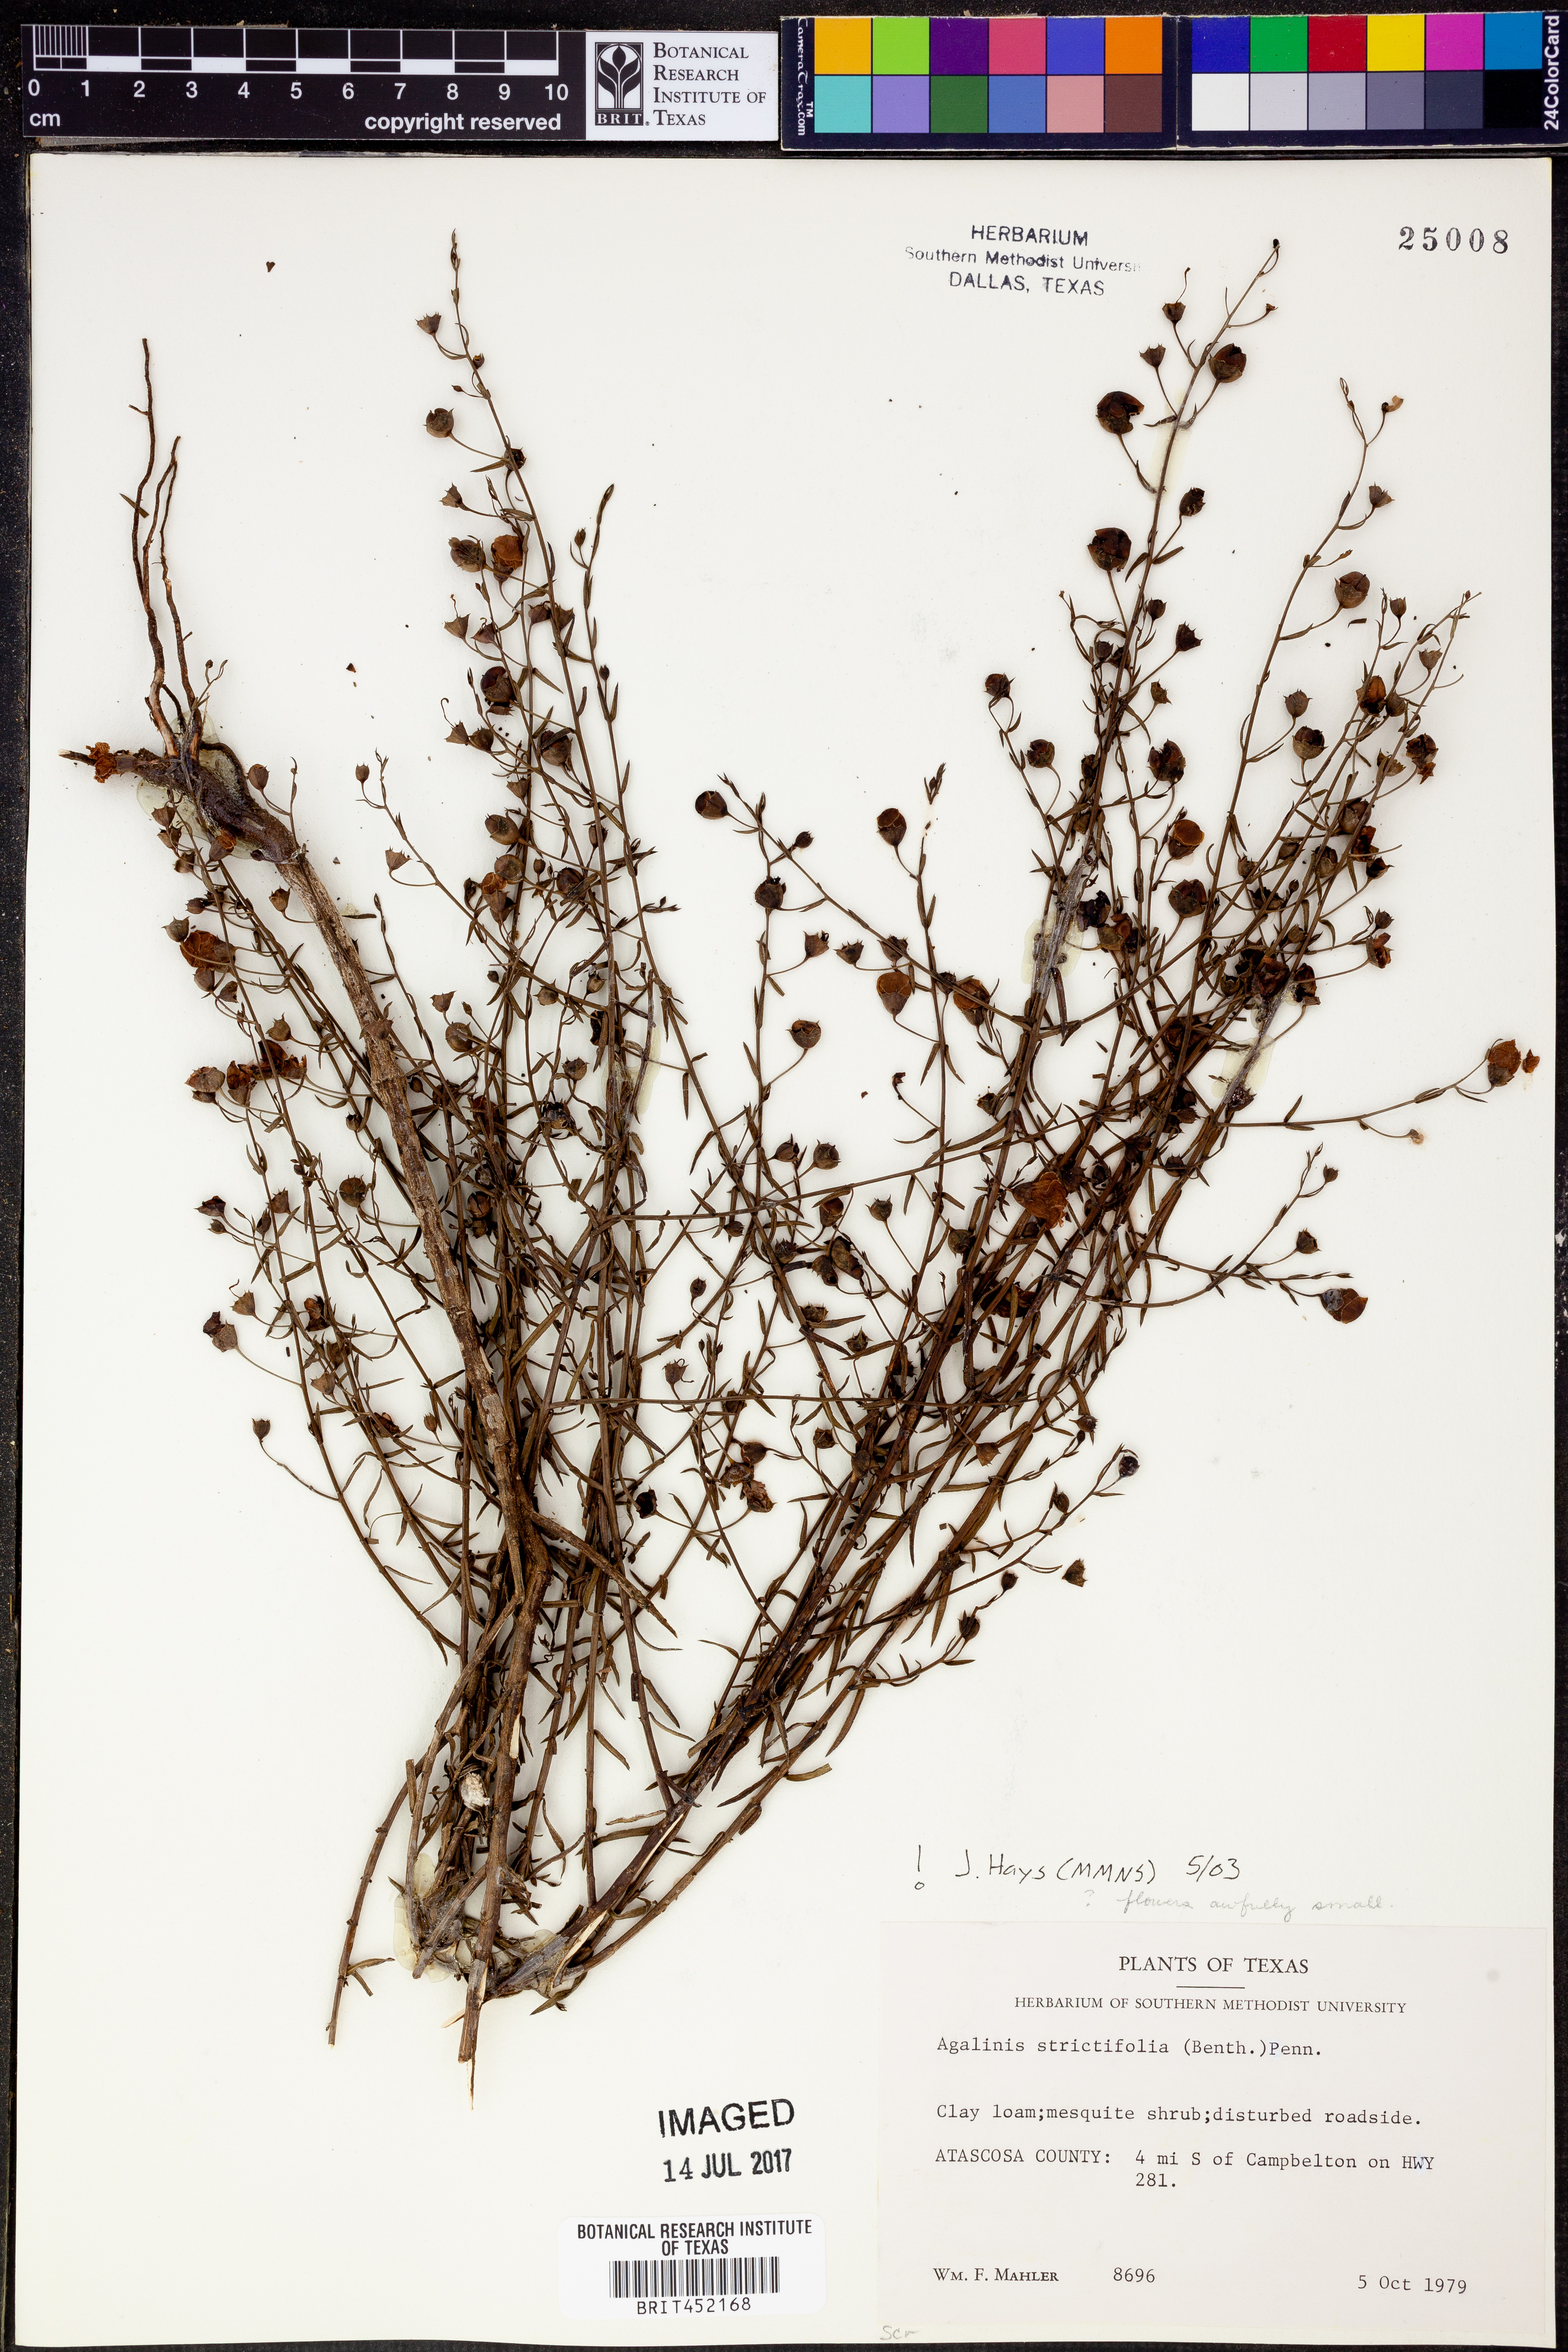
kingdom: Plantae
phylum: Tracheophyta
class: Magnoliopsida
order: Lamiales
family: Orobanchaceae
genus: Agalinis
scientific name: Agalinis strictifolia
